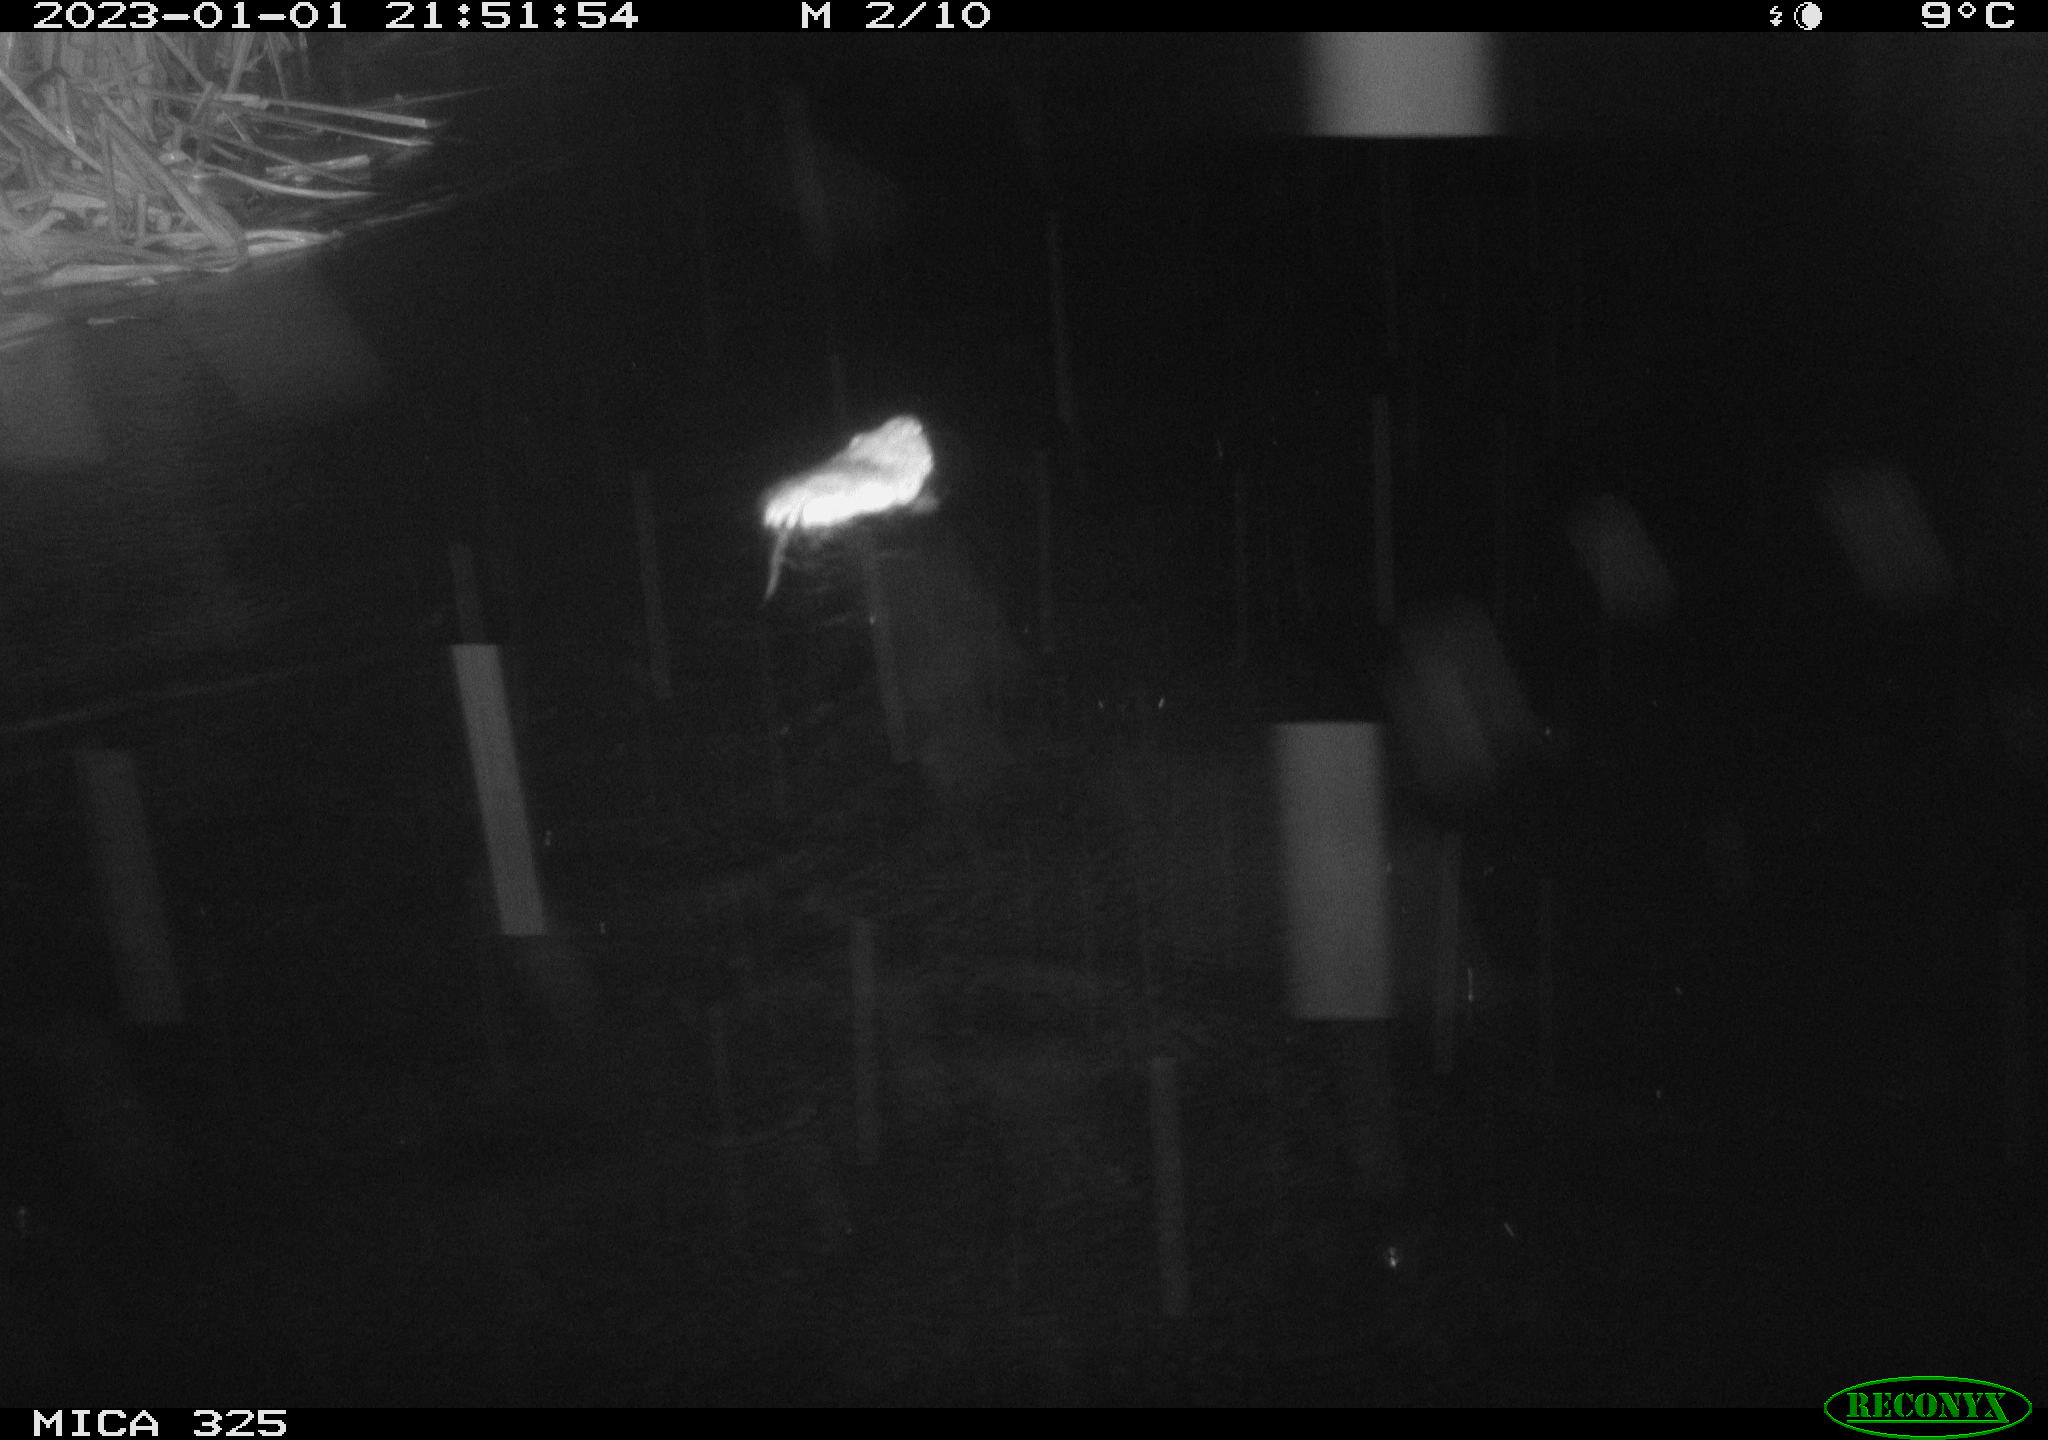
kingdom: Animalia
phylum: Chordata
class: Mammalia
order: Rodentia
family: Cricetidae
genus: Ondatra
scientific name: Ondatra zibethicus
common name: Muskrat
